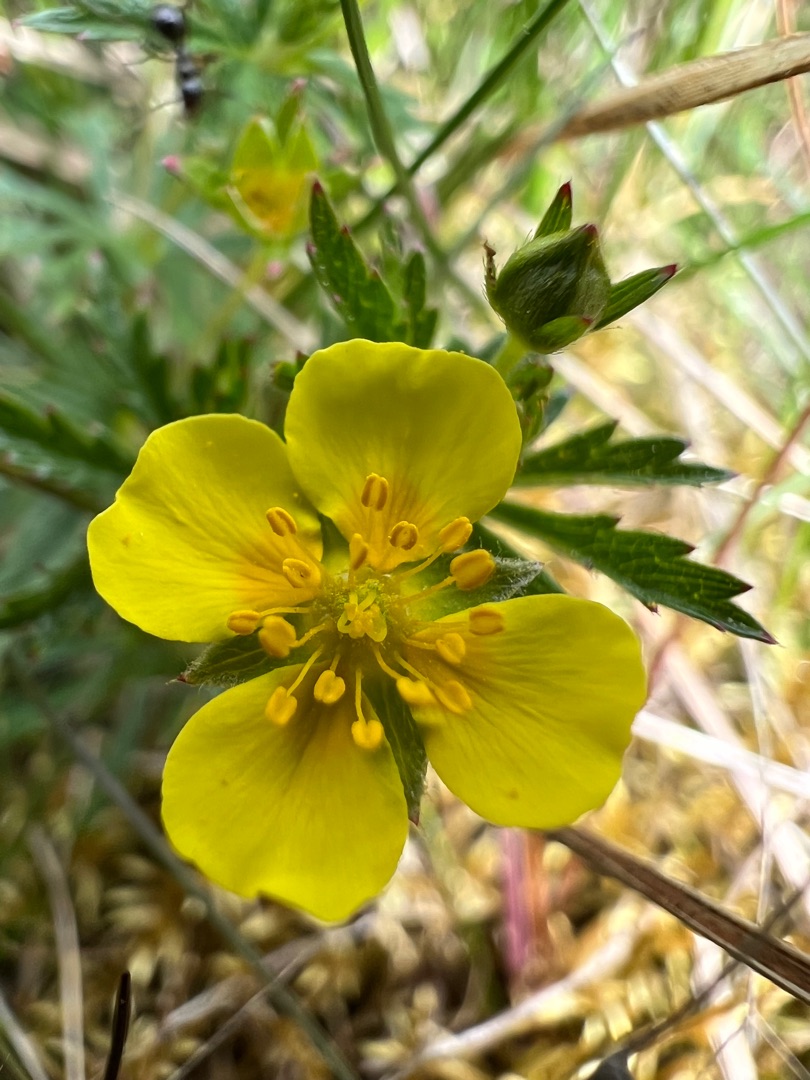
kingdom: Plantae
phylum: Tracheophyta
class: Magnoliopsida
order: Rosales
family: Rosaceae
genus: Potentilla
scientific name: Potentilla erecta
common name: Tormentil
